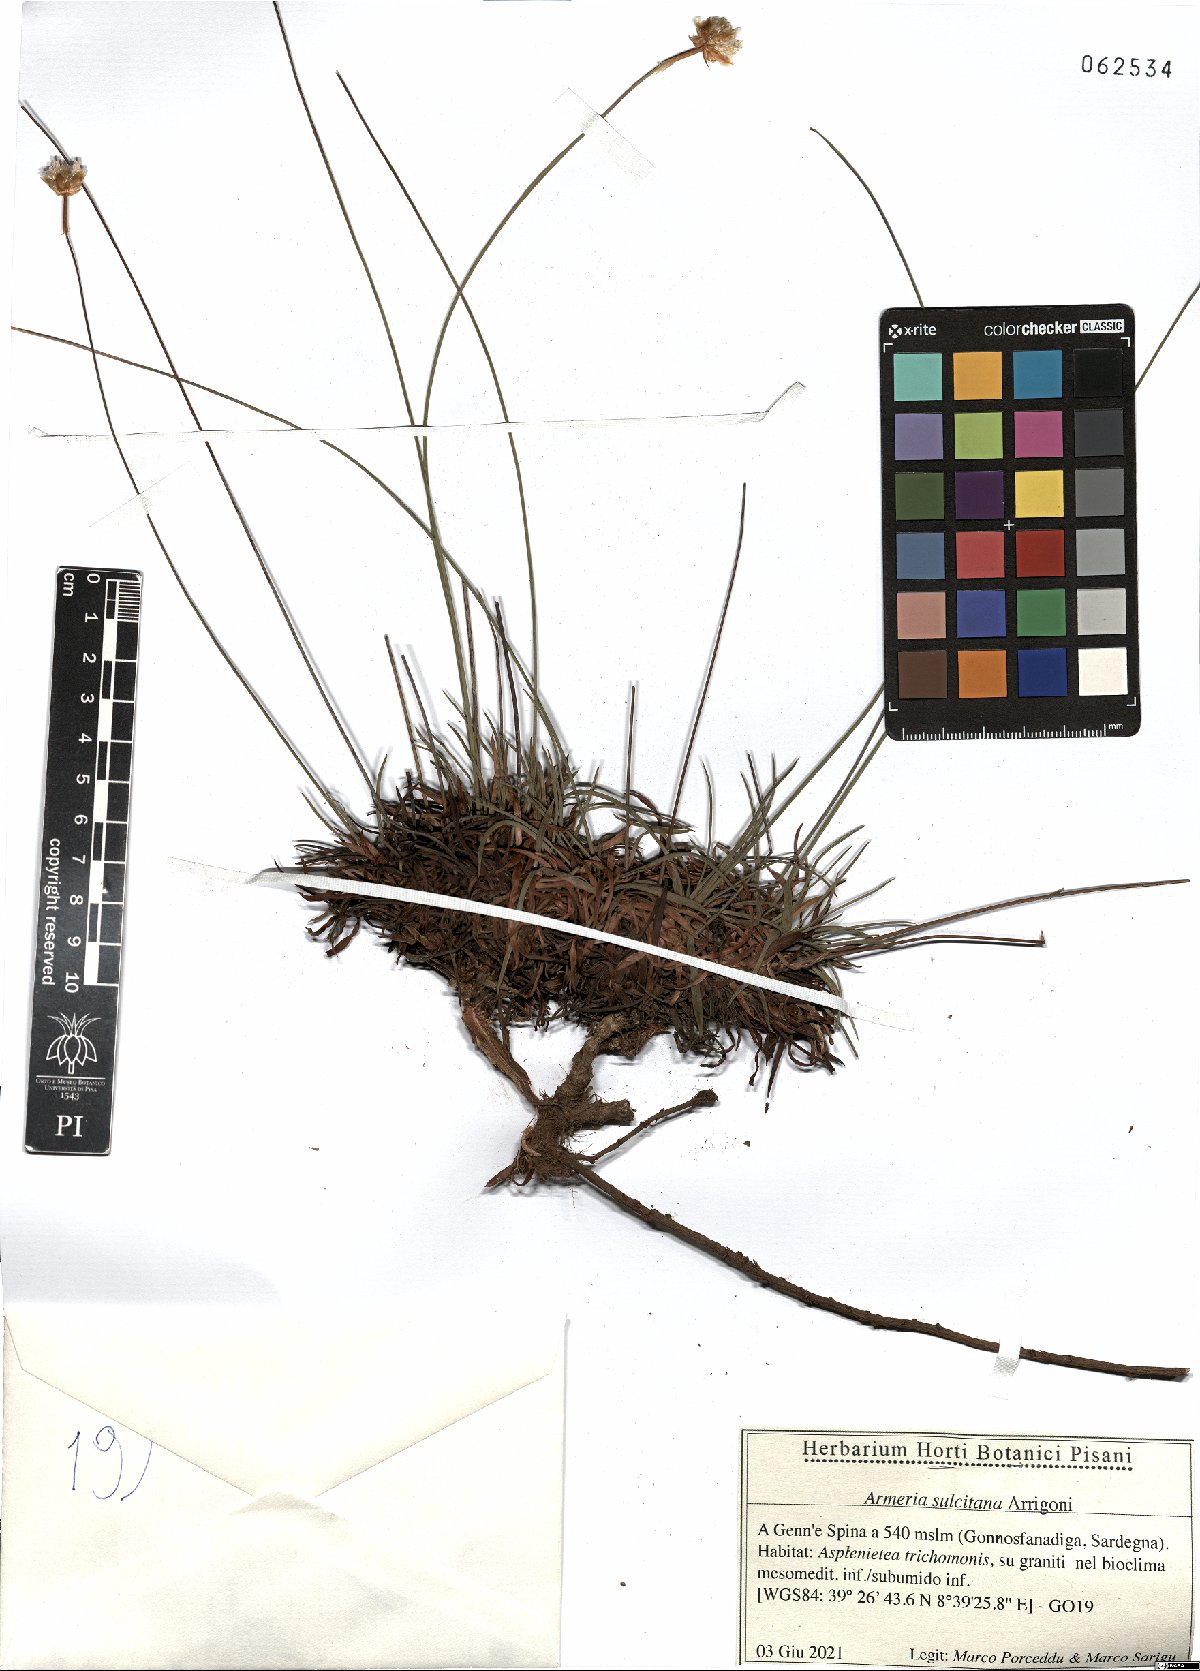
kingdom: Plantae
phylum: Tracheophyta
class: Magnoliopsida
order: Caryophyllales
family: Plumbaginaceae
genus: Armeria
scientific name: Armeria sulcitana
